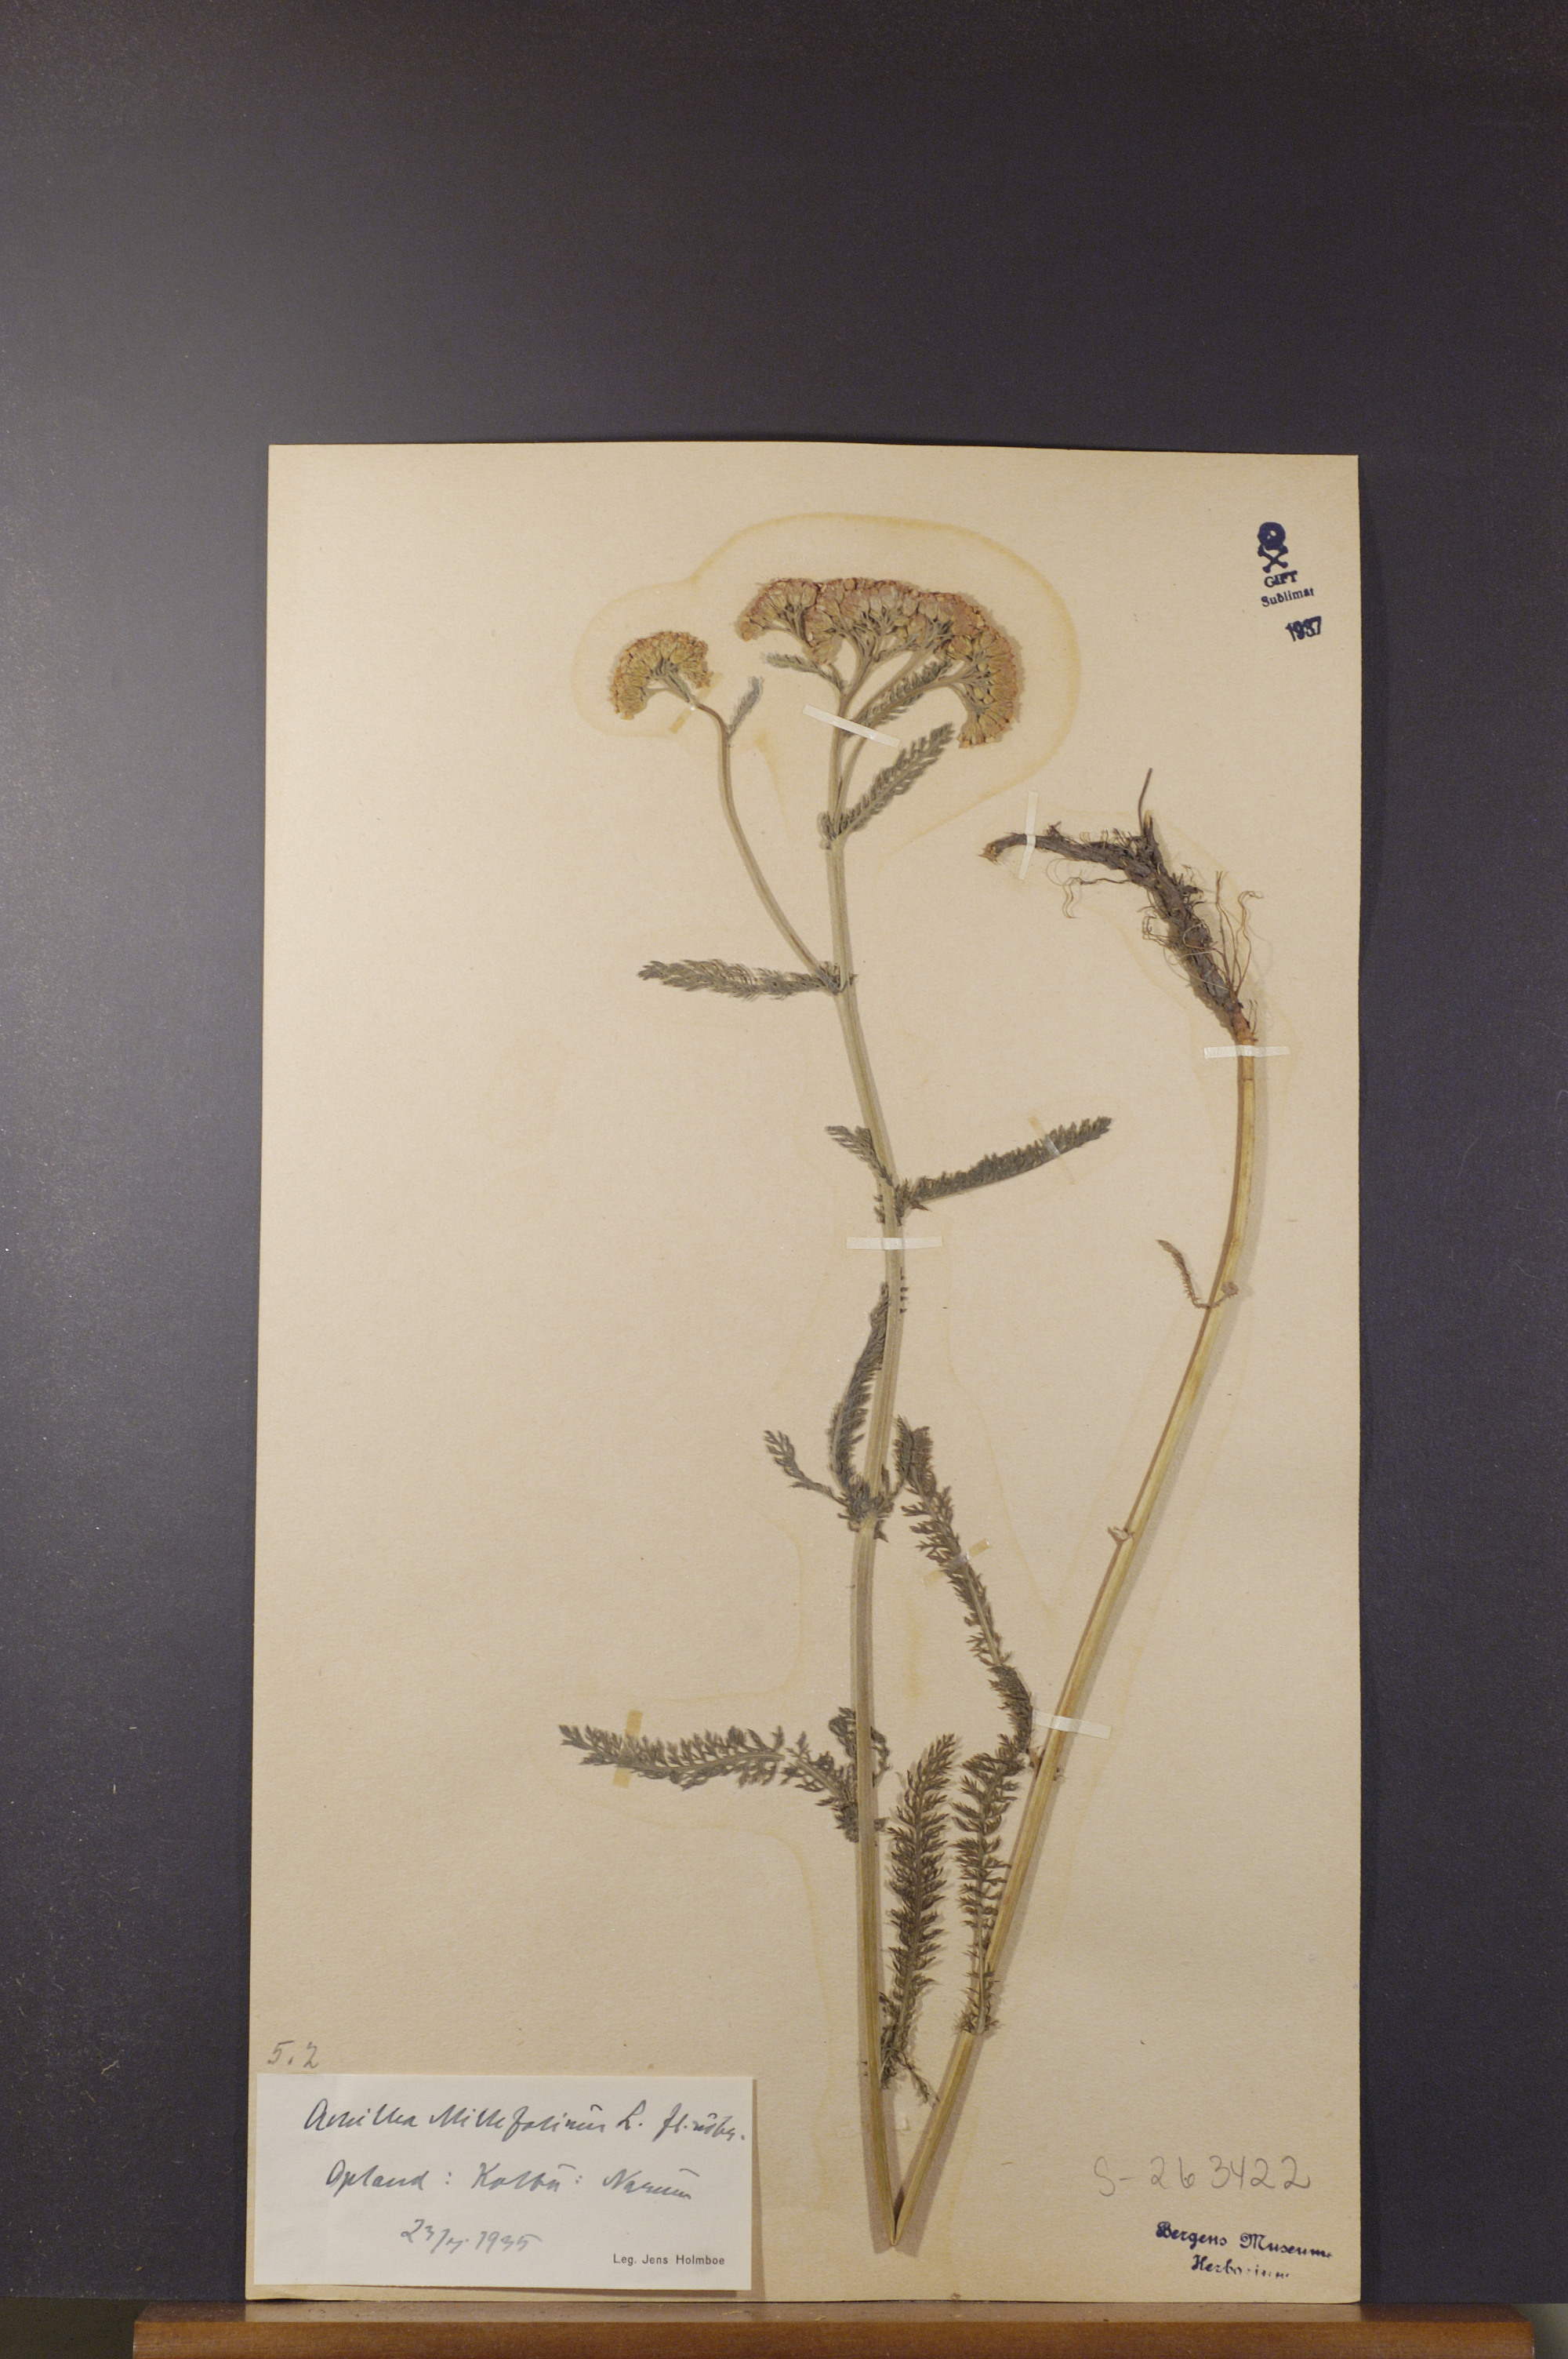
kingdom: Plantae
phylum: Tracheophyta
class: Magnoliopsida
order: Asterales
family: Asteraceae
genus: Achillea
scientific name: Achillea millefolium
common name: Yarrow
